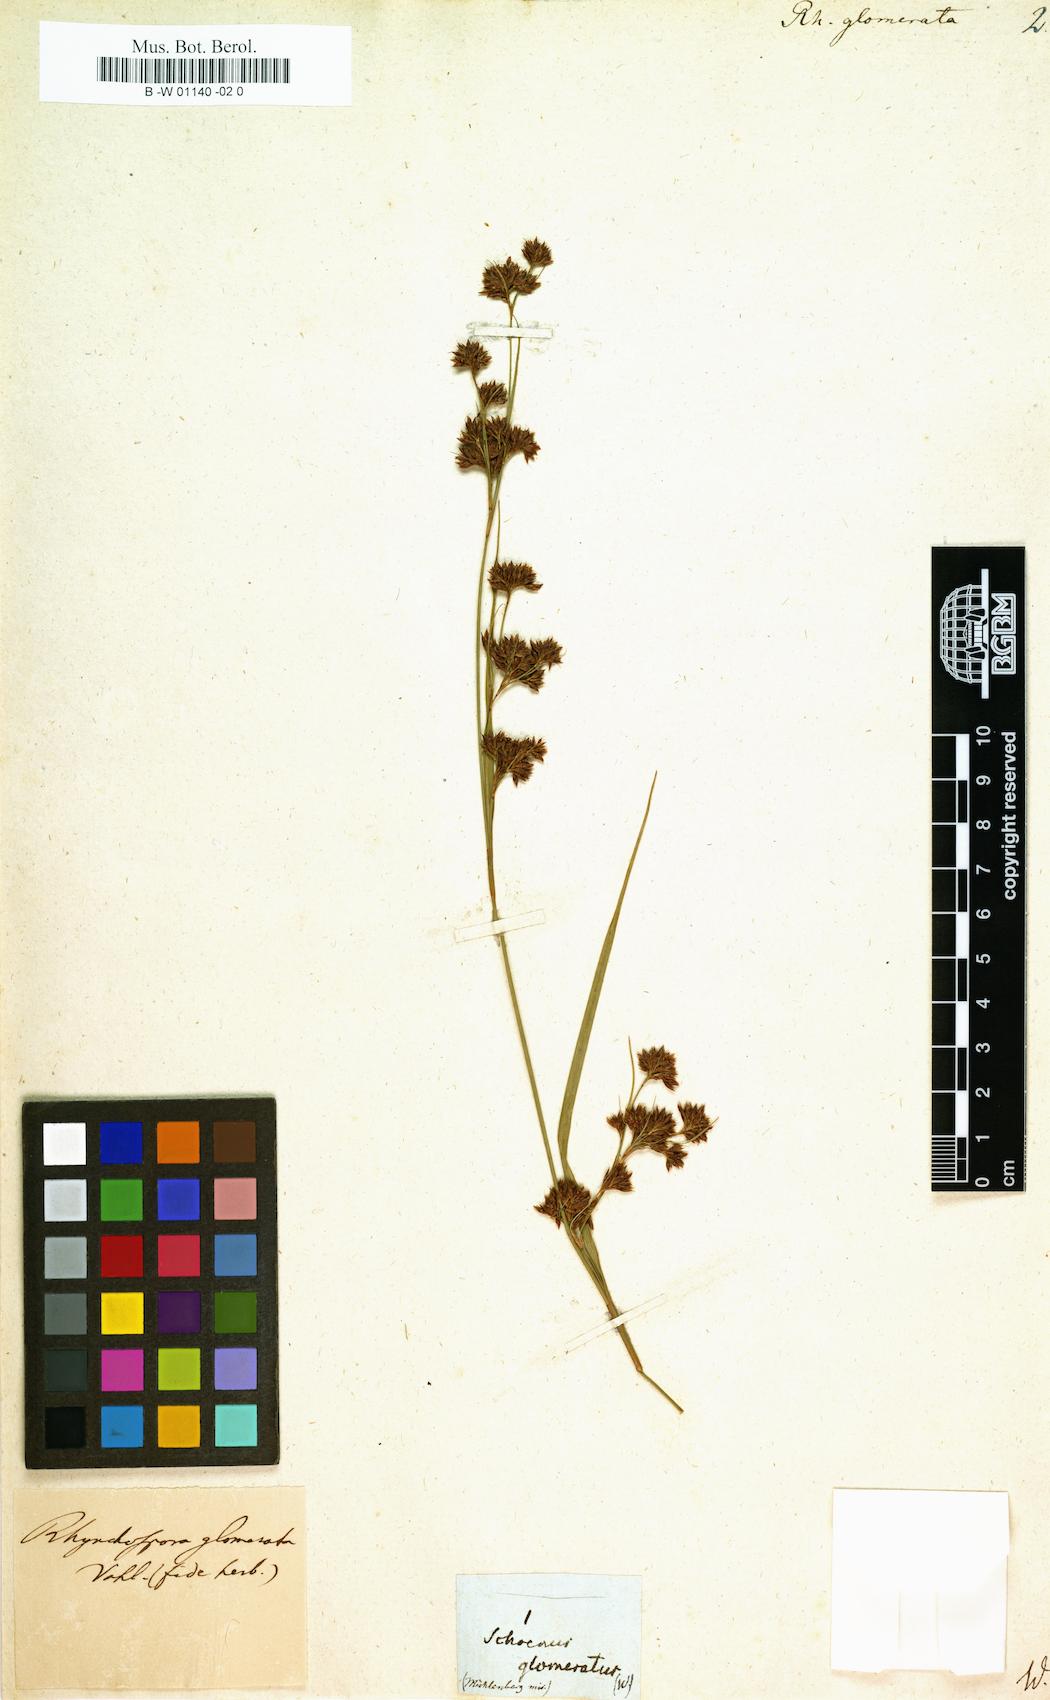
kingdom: Plantae
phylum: Tracheophyta
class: Liliopsida
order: Poales
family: Cyperaceae
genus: Rhynchospora
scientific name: Rhynchospora glomerata
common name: Cluster beak sedge
